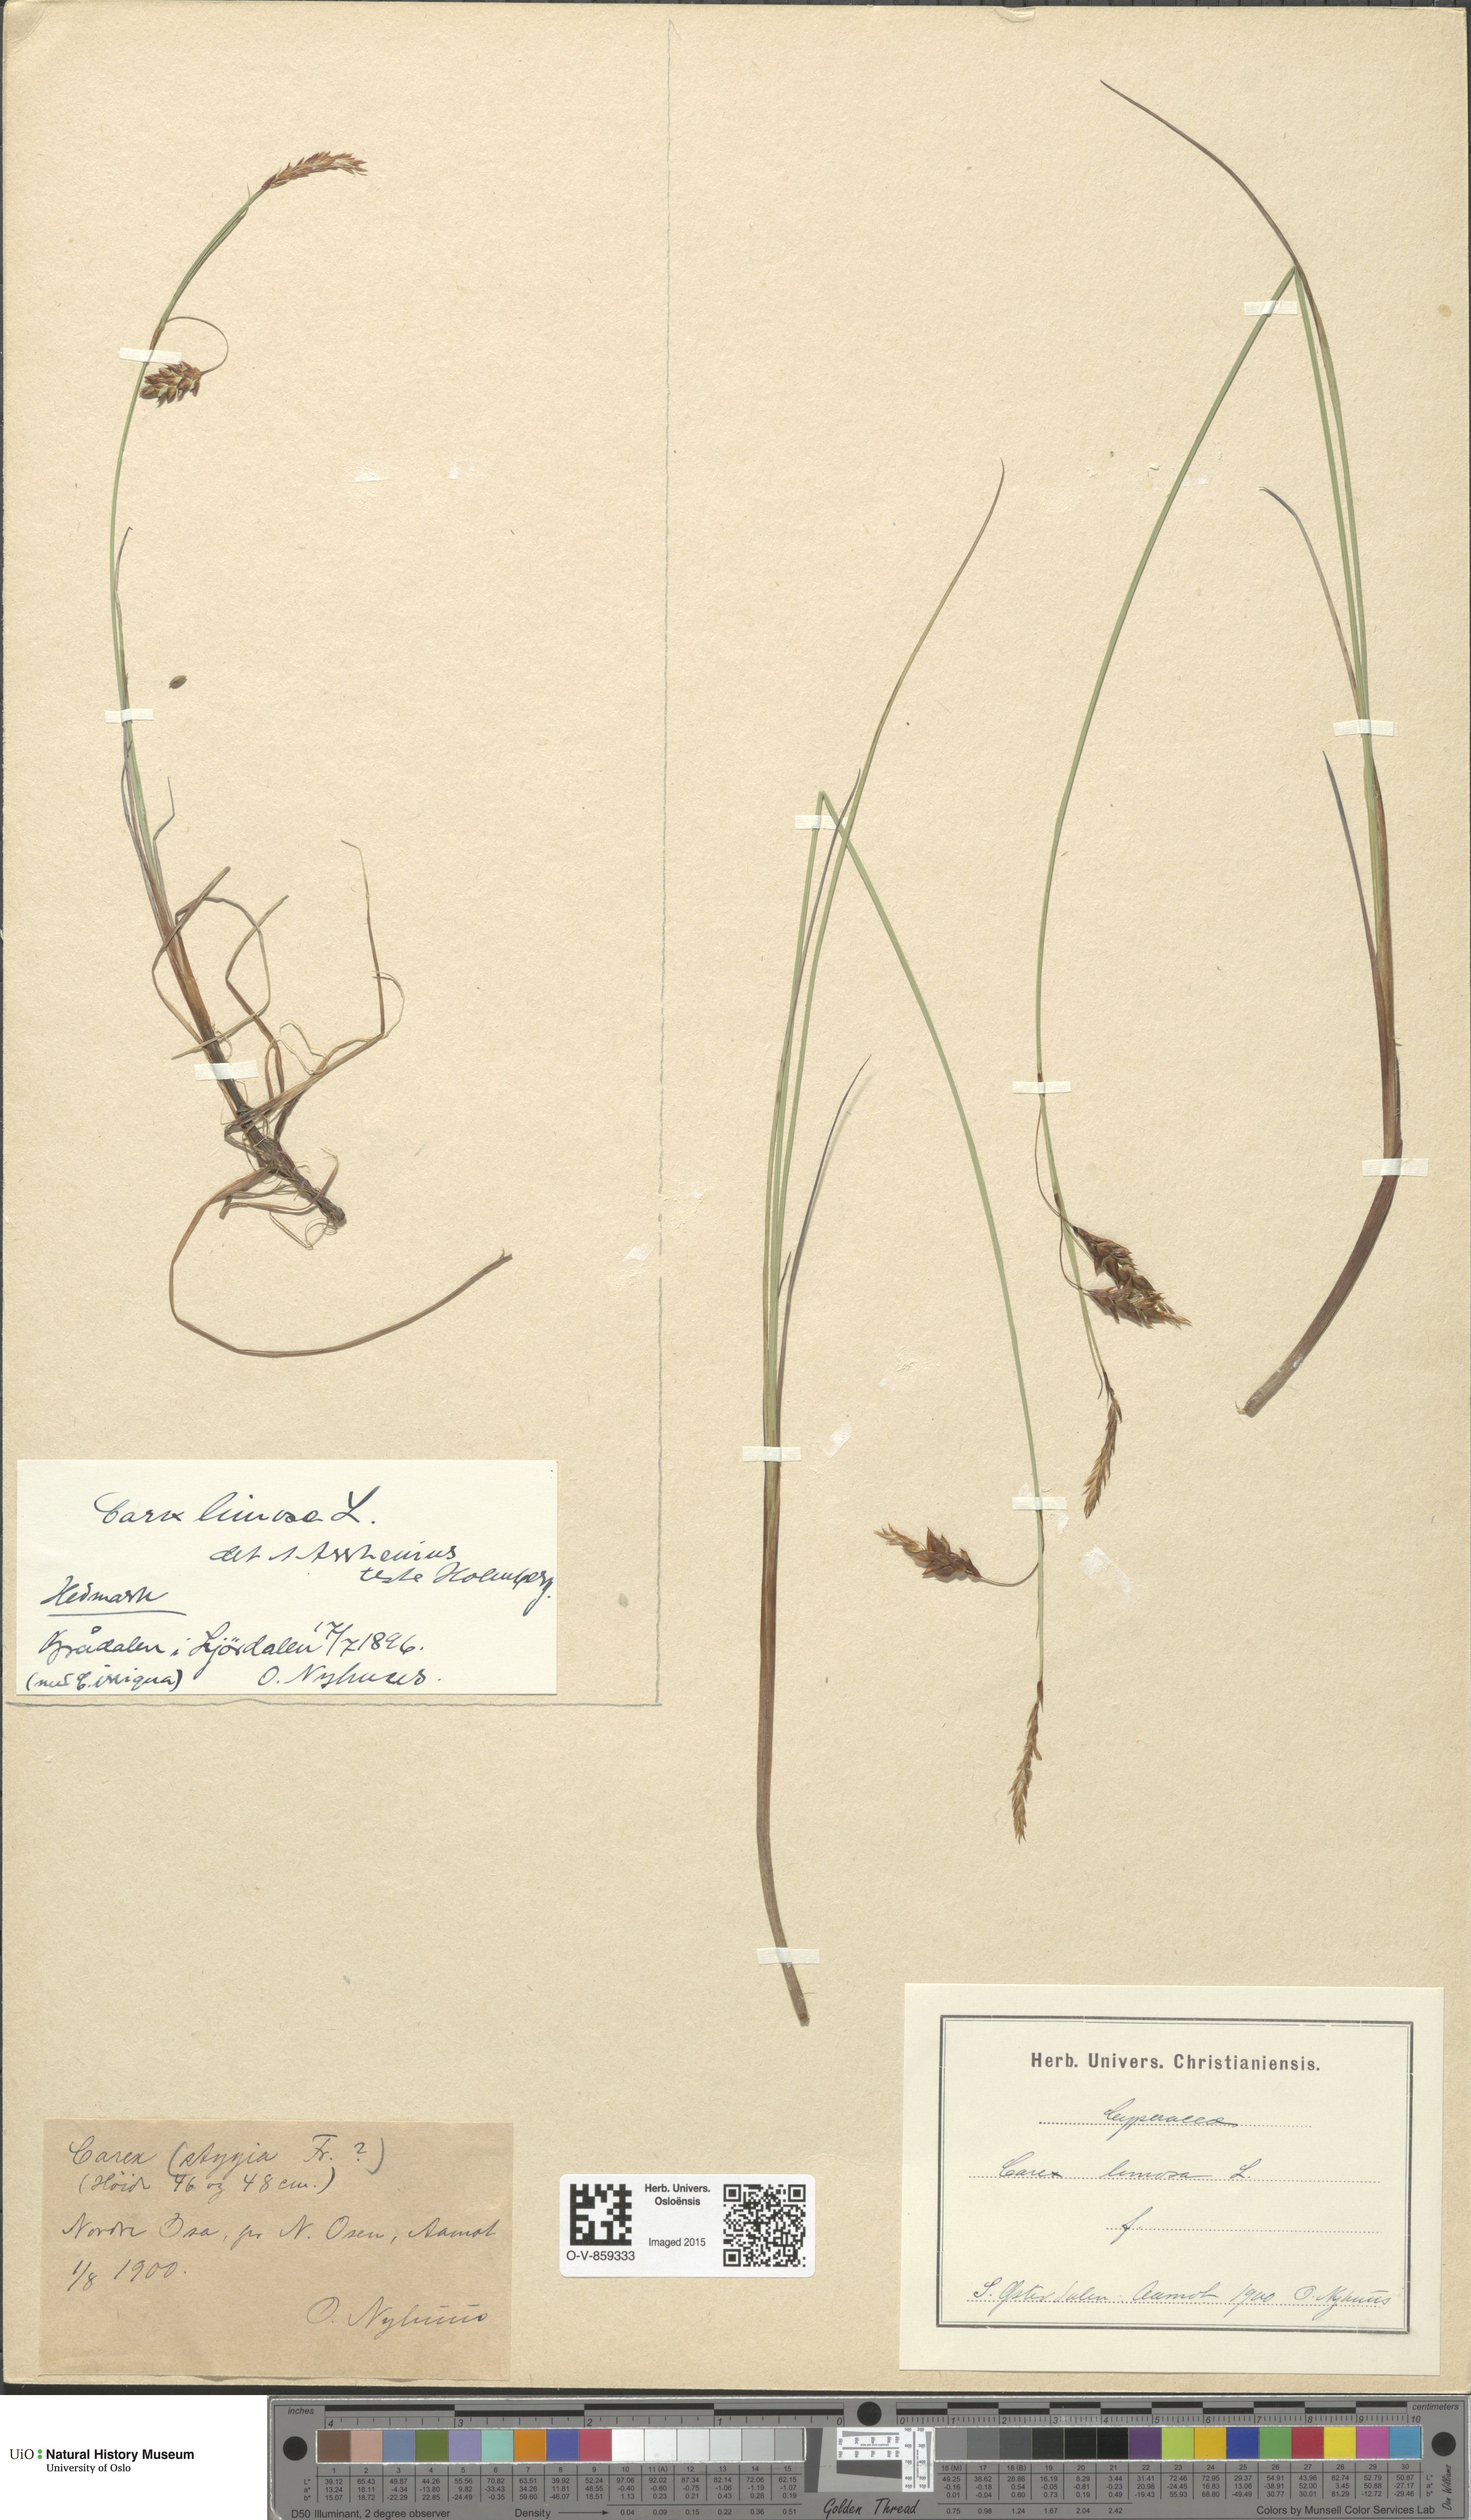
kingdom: Plantae
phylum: Tracheophyta
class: Liliopsida
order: Poales
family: Cyperaceae
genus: Carex
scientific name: Carex limosa
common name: Bog sedge
